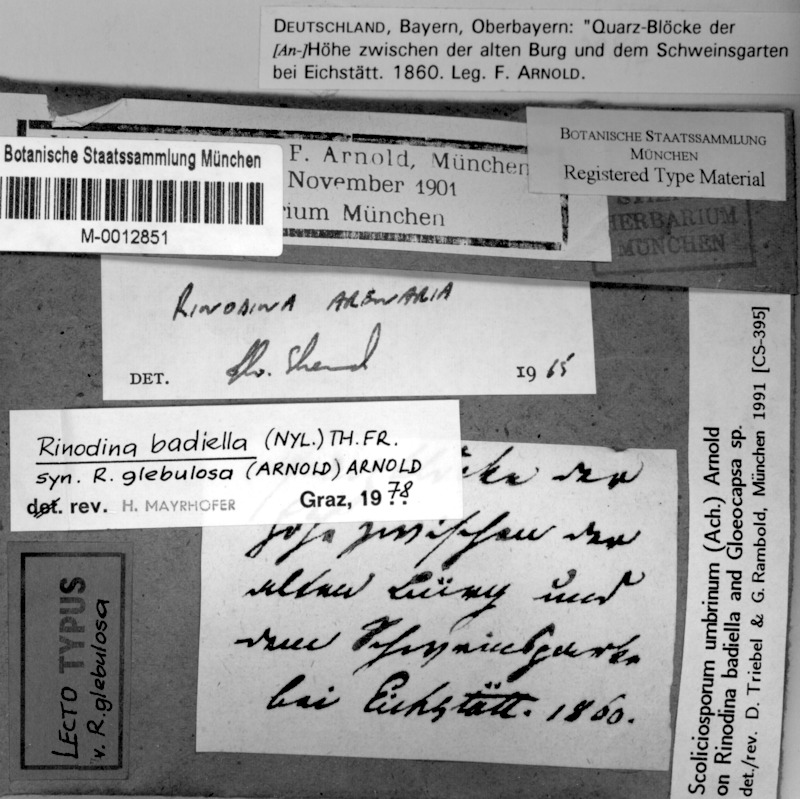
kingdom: Fungi
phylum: Ascomycota
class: Lecanoromycetes
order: Caliciales
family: Physciaceae
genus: Rinodina
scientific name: Rinodina tephraspis
